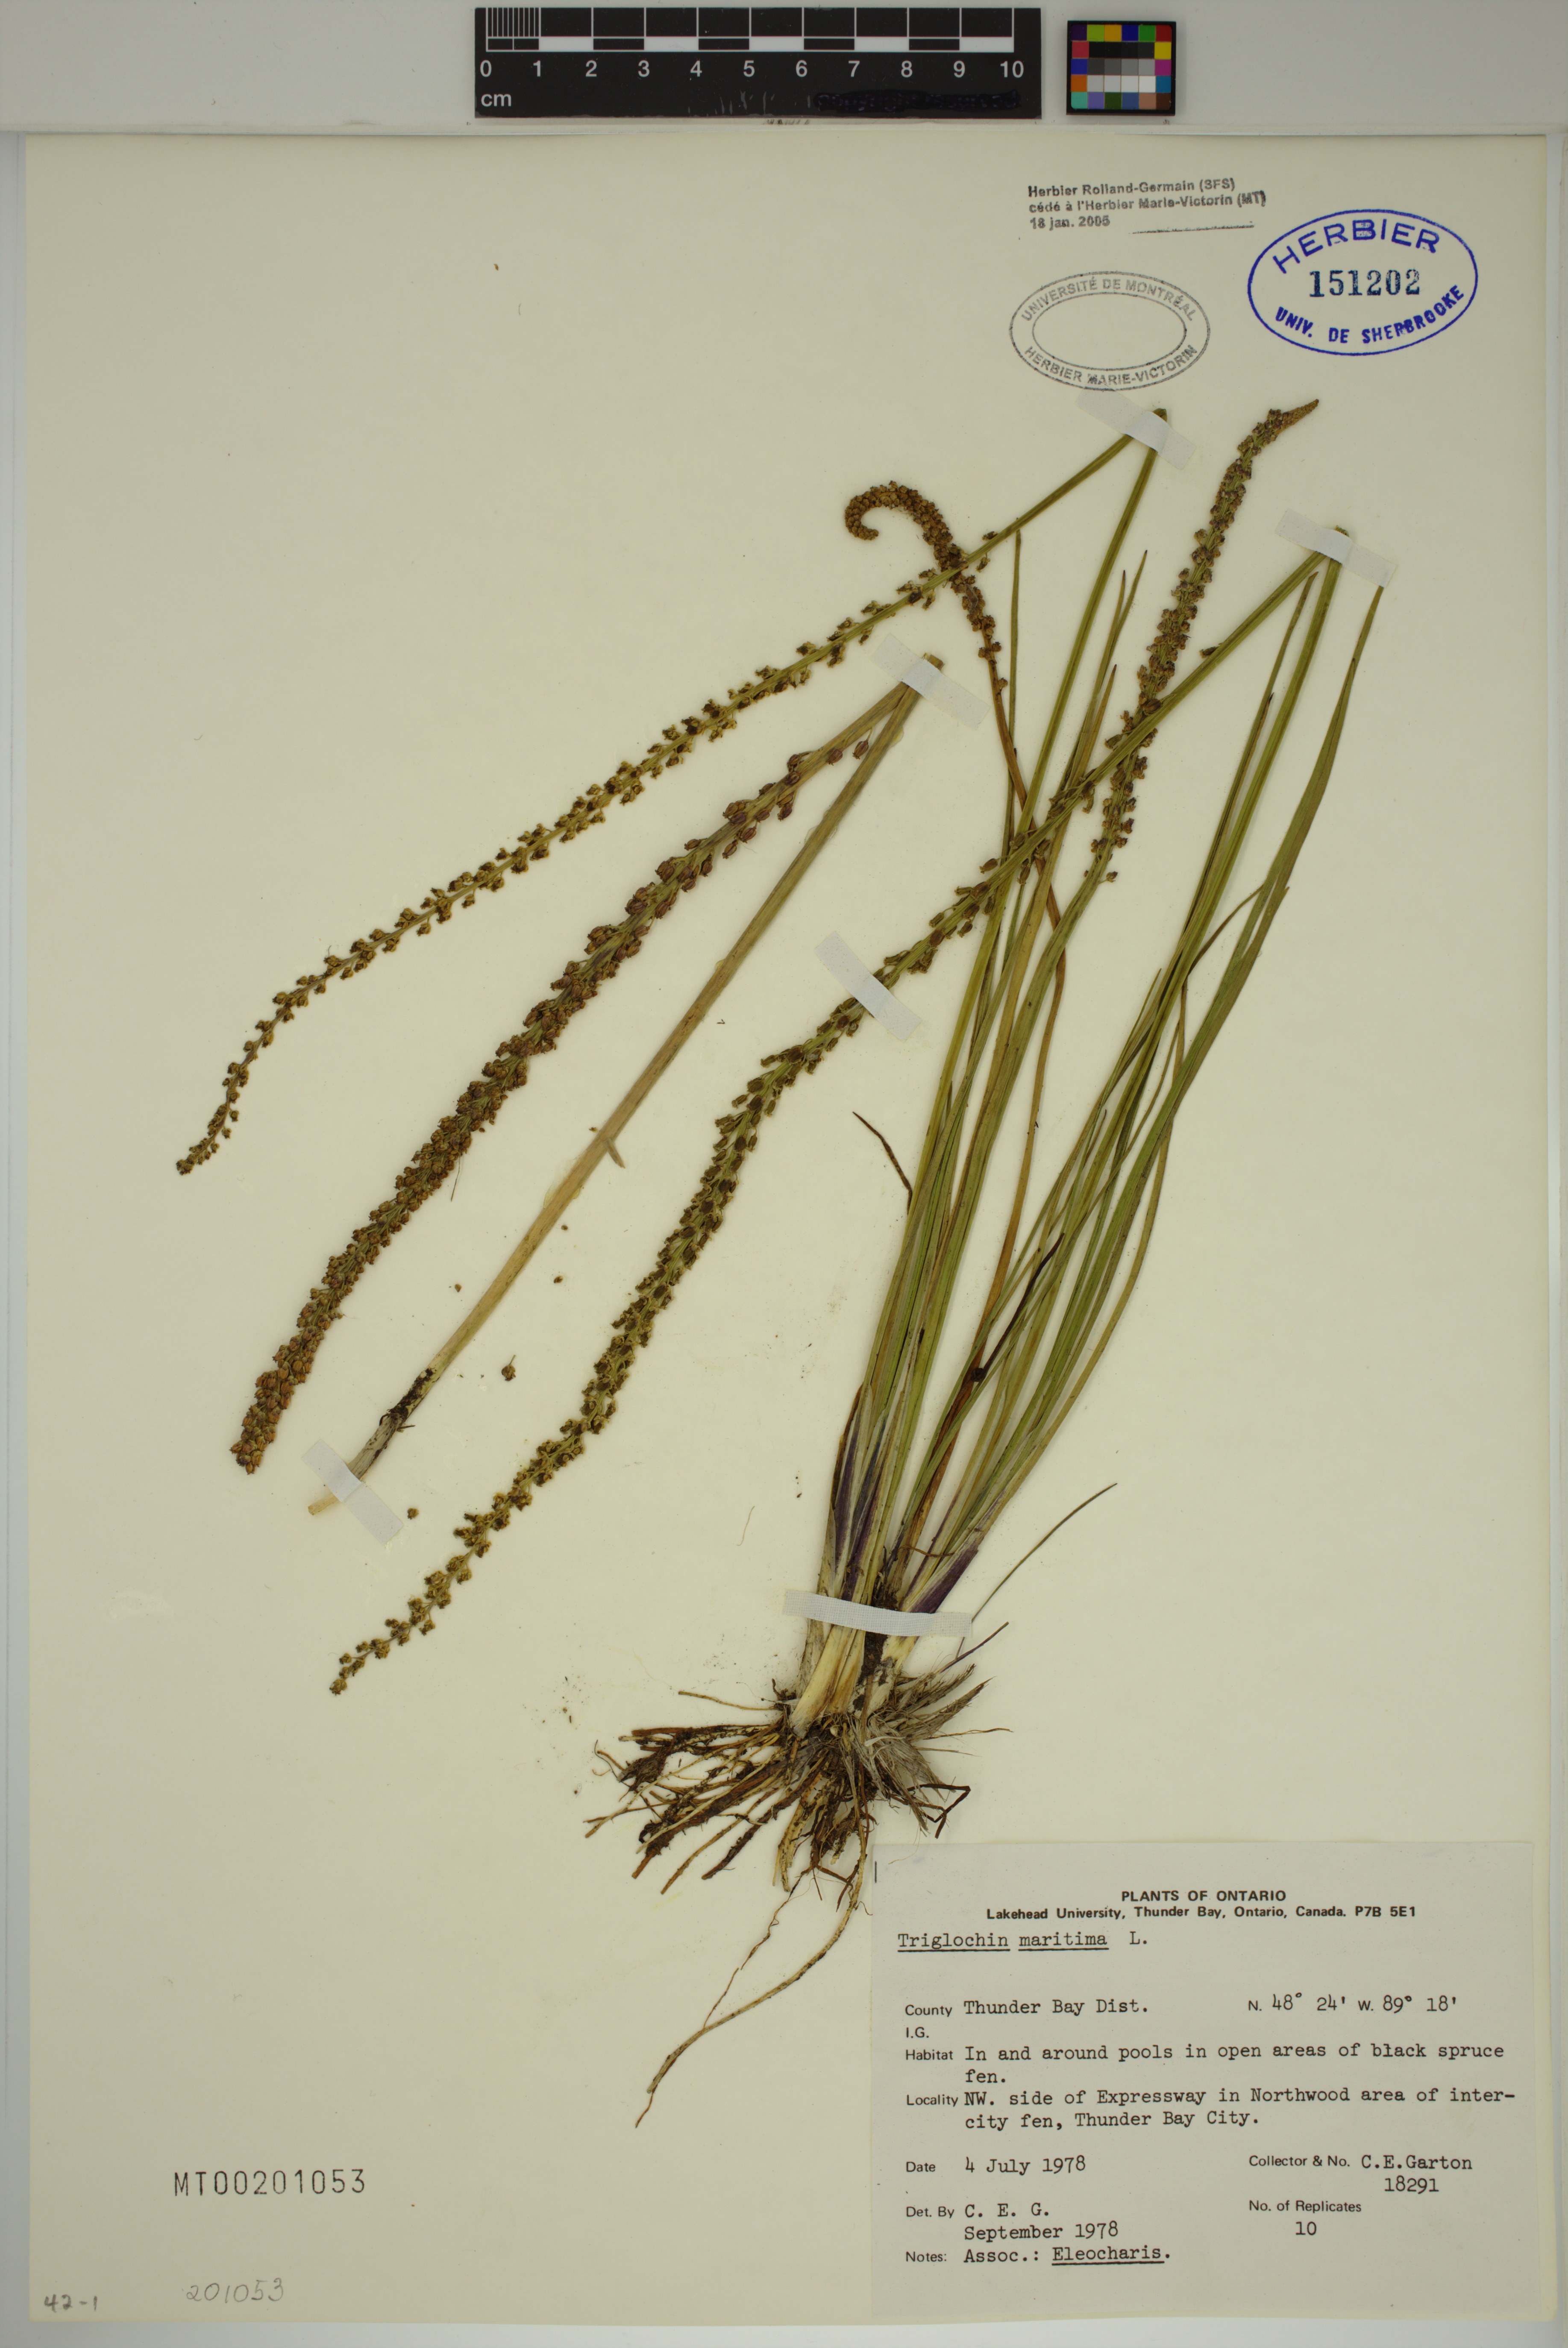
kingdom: Plantae
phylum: Tracheophyta
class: Liliopsida
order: Alismatales
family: Juncaginaceae
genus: Triglochin
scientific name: Triglochin maritima
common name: Sea arrowgrass
